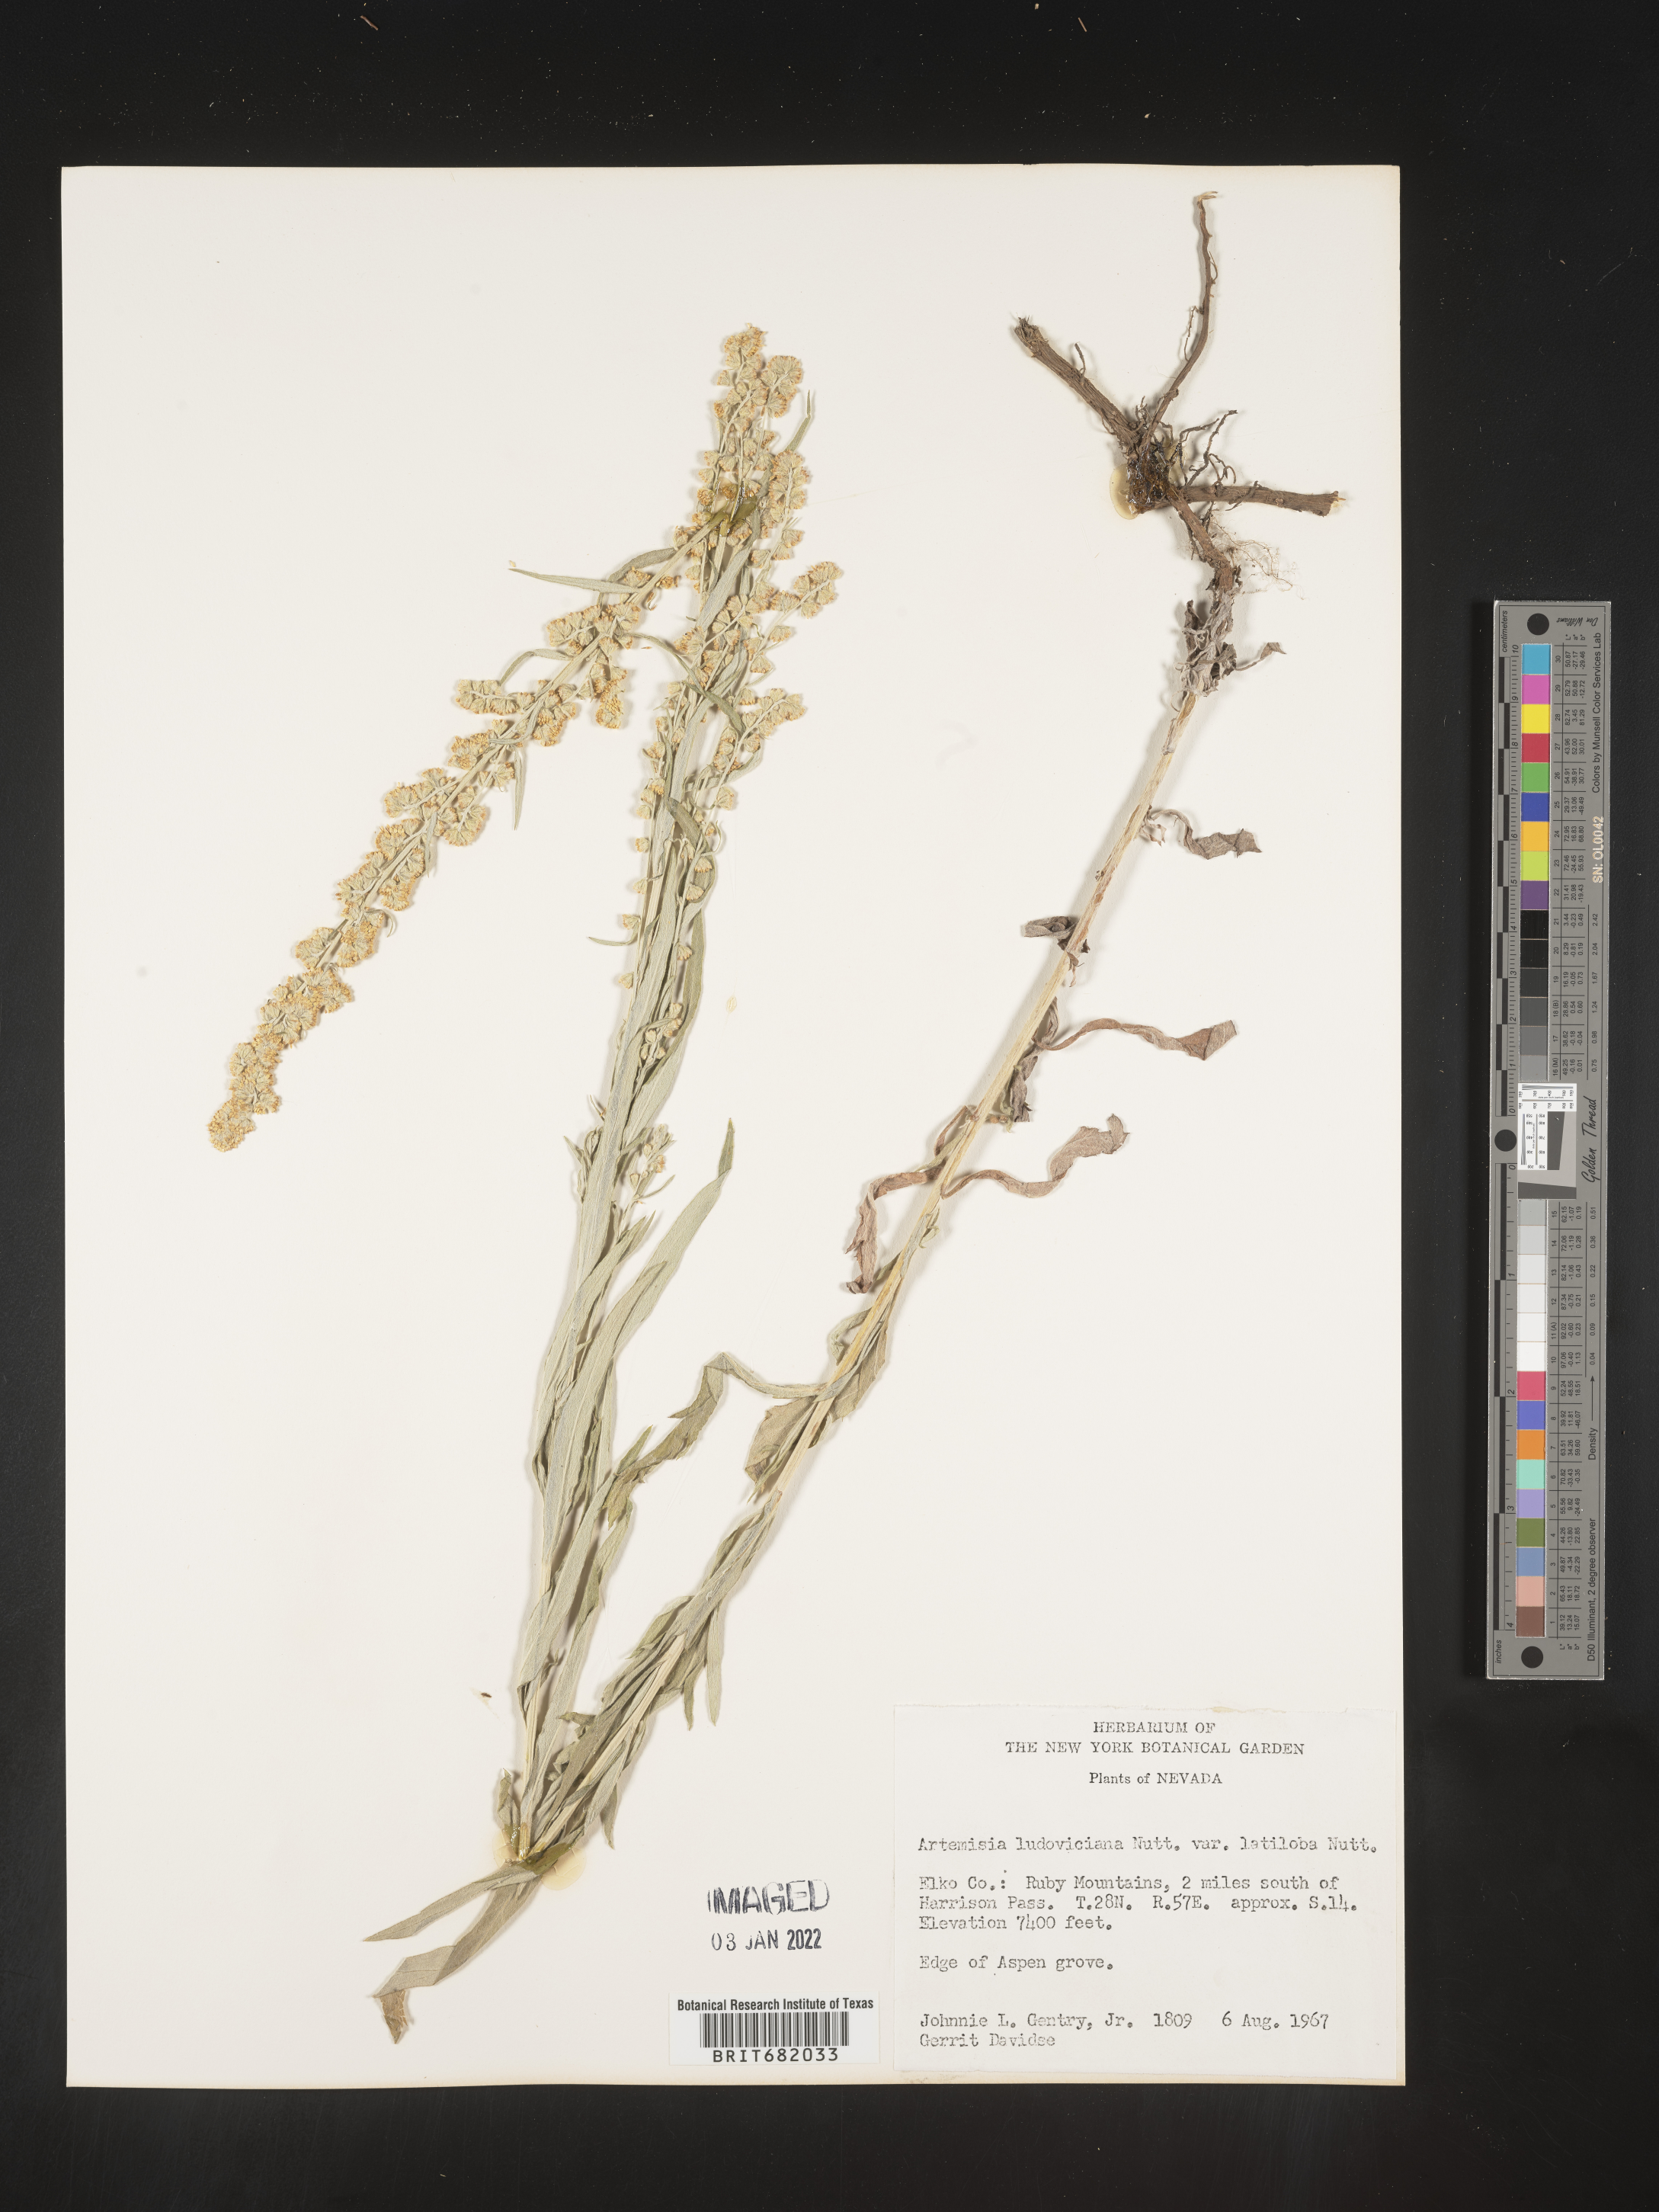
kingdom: Plantae
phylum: Tracheophyta
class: Magnoliopsida
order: Asterales
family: Asteraceae
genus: Artemisia
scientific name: Artemisia ludoviciana
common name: Western mugwort
